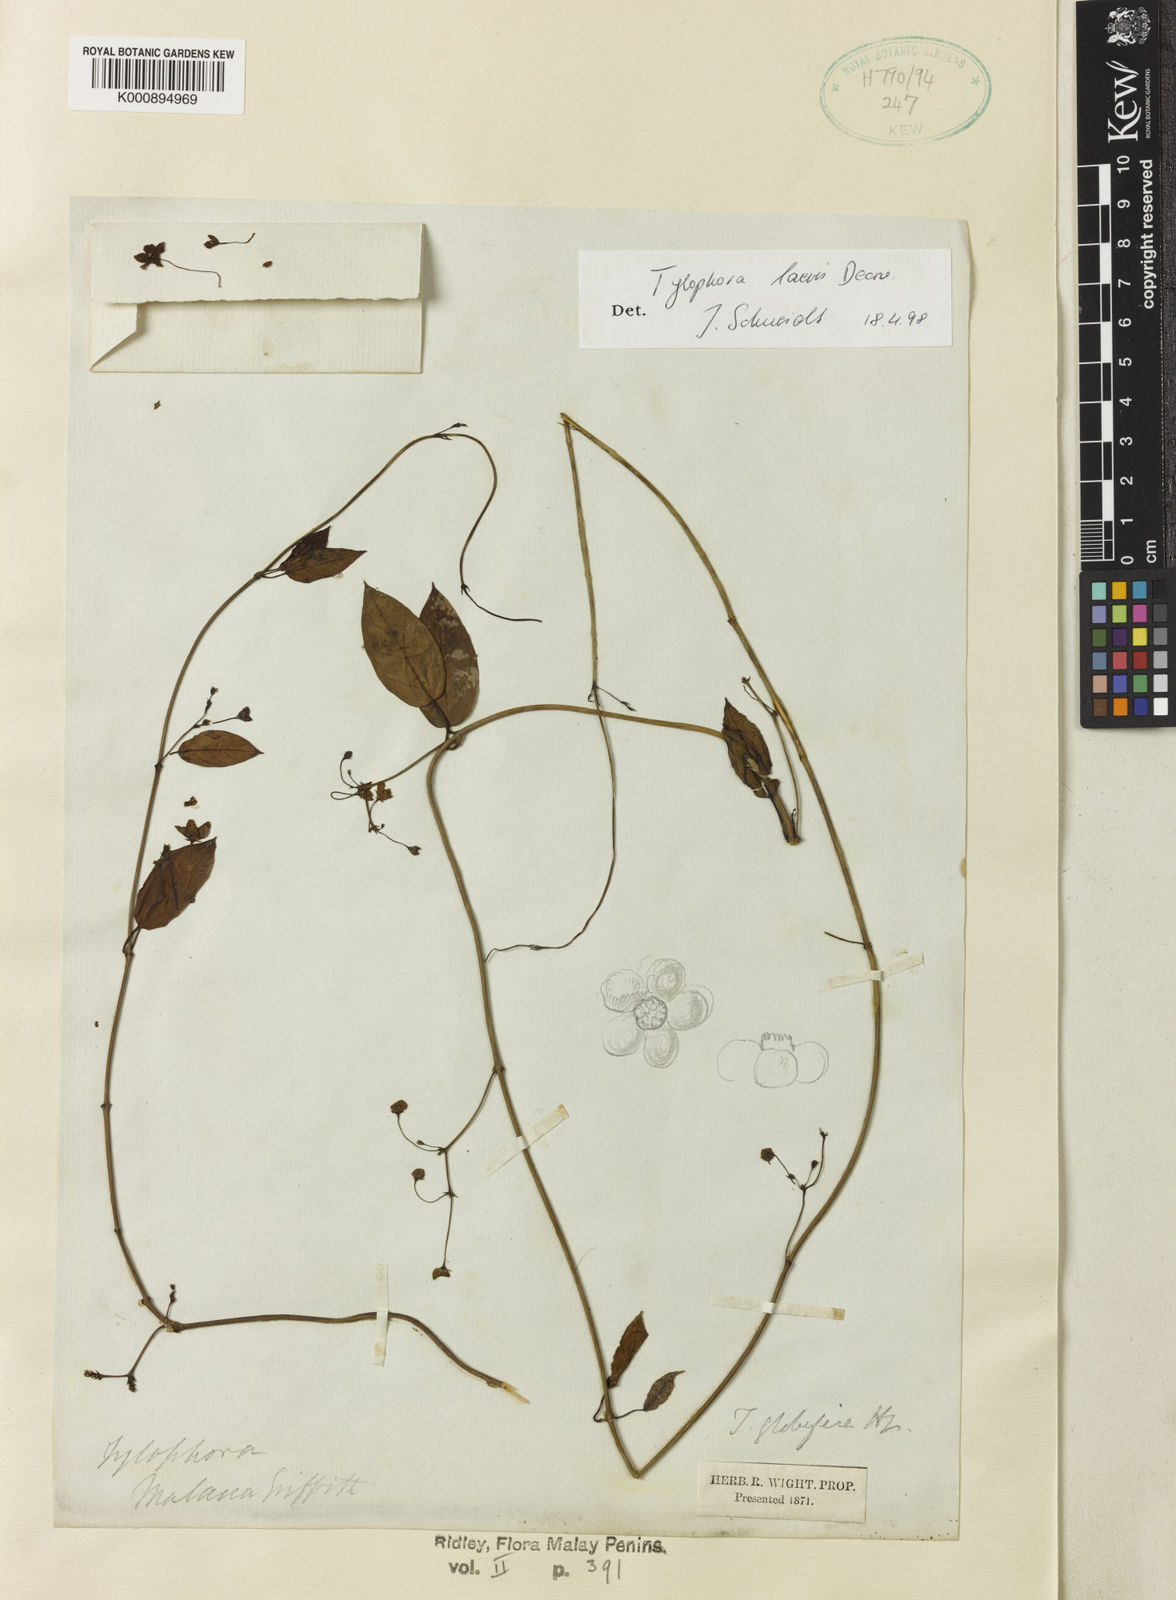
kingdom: Plantae
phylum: Tracheophyta
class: Magnoliopsida
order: Gentianales
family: Apocynaceae
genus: Vincetoxicum
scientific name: Vincetoxicum globiferum
